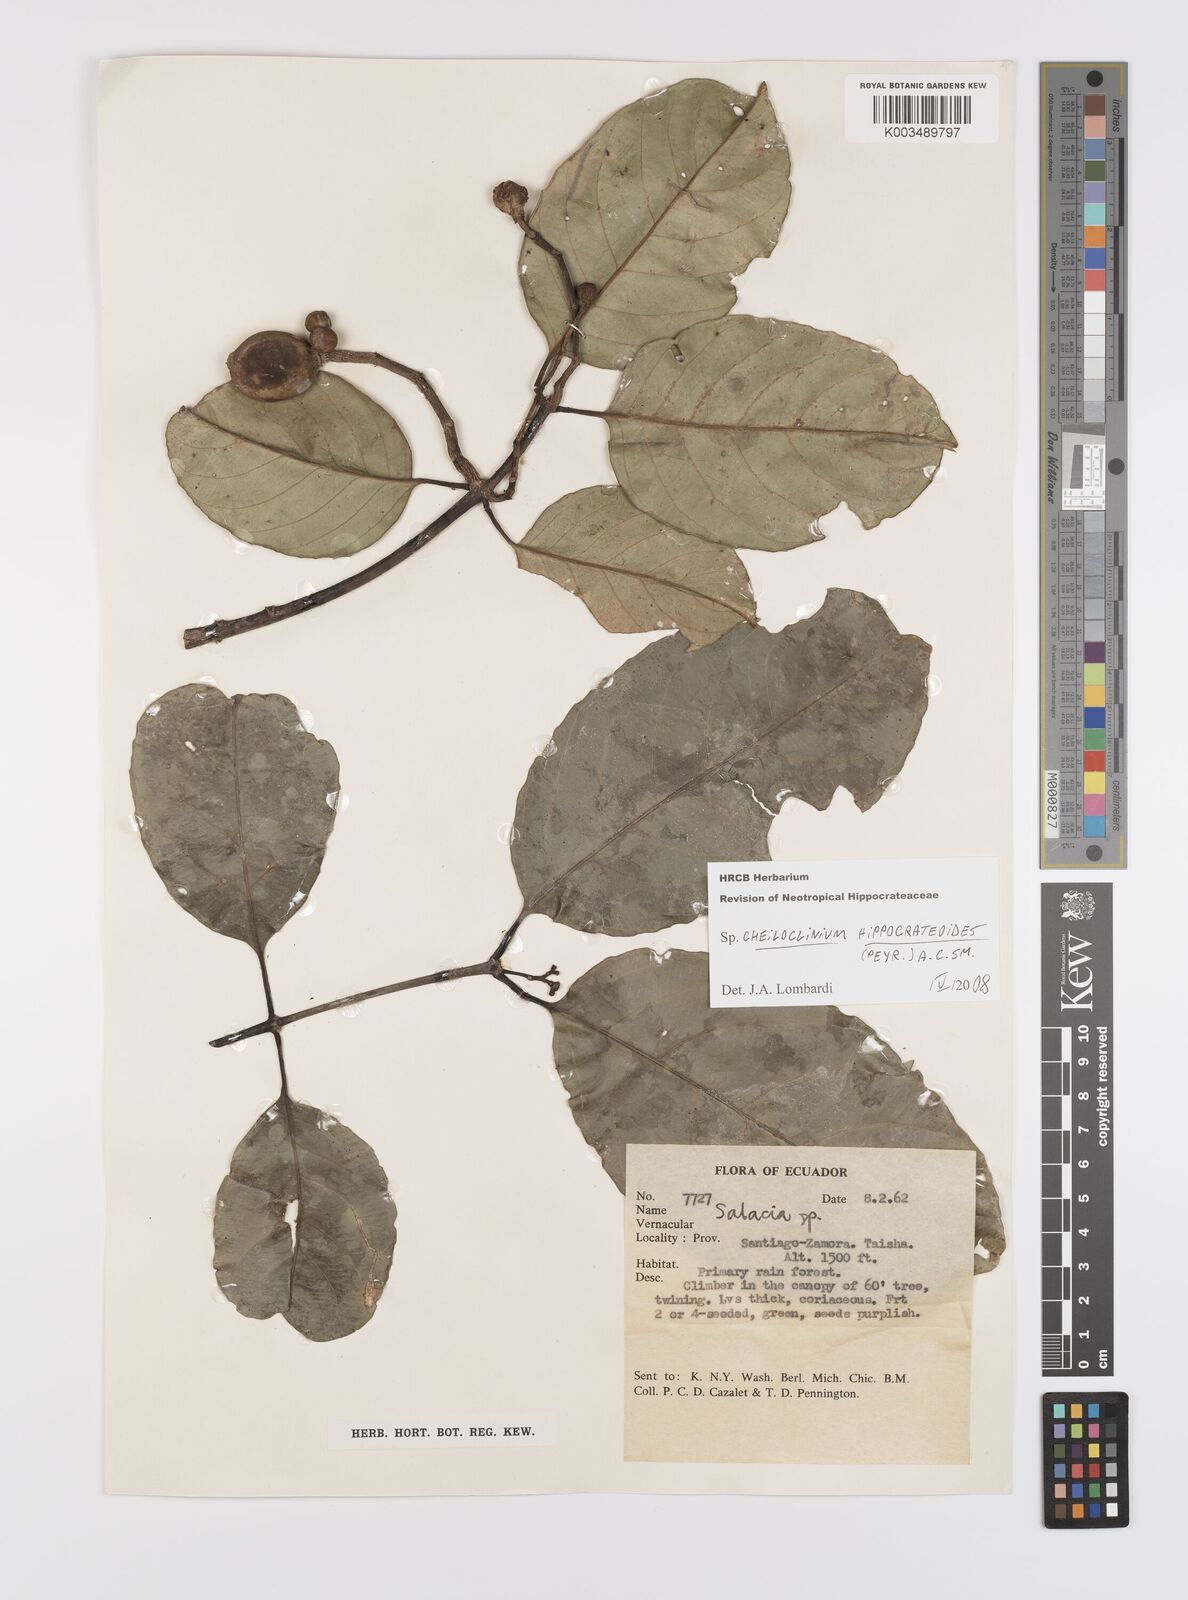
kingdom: Plantae
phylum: Tracheophyta
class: Magnoliopsida
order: Celastrales
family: Celastraceae
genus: Cheiloclinium
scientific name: Cheiloclinium hippocrateoides
